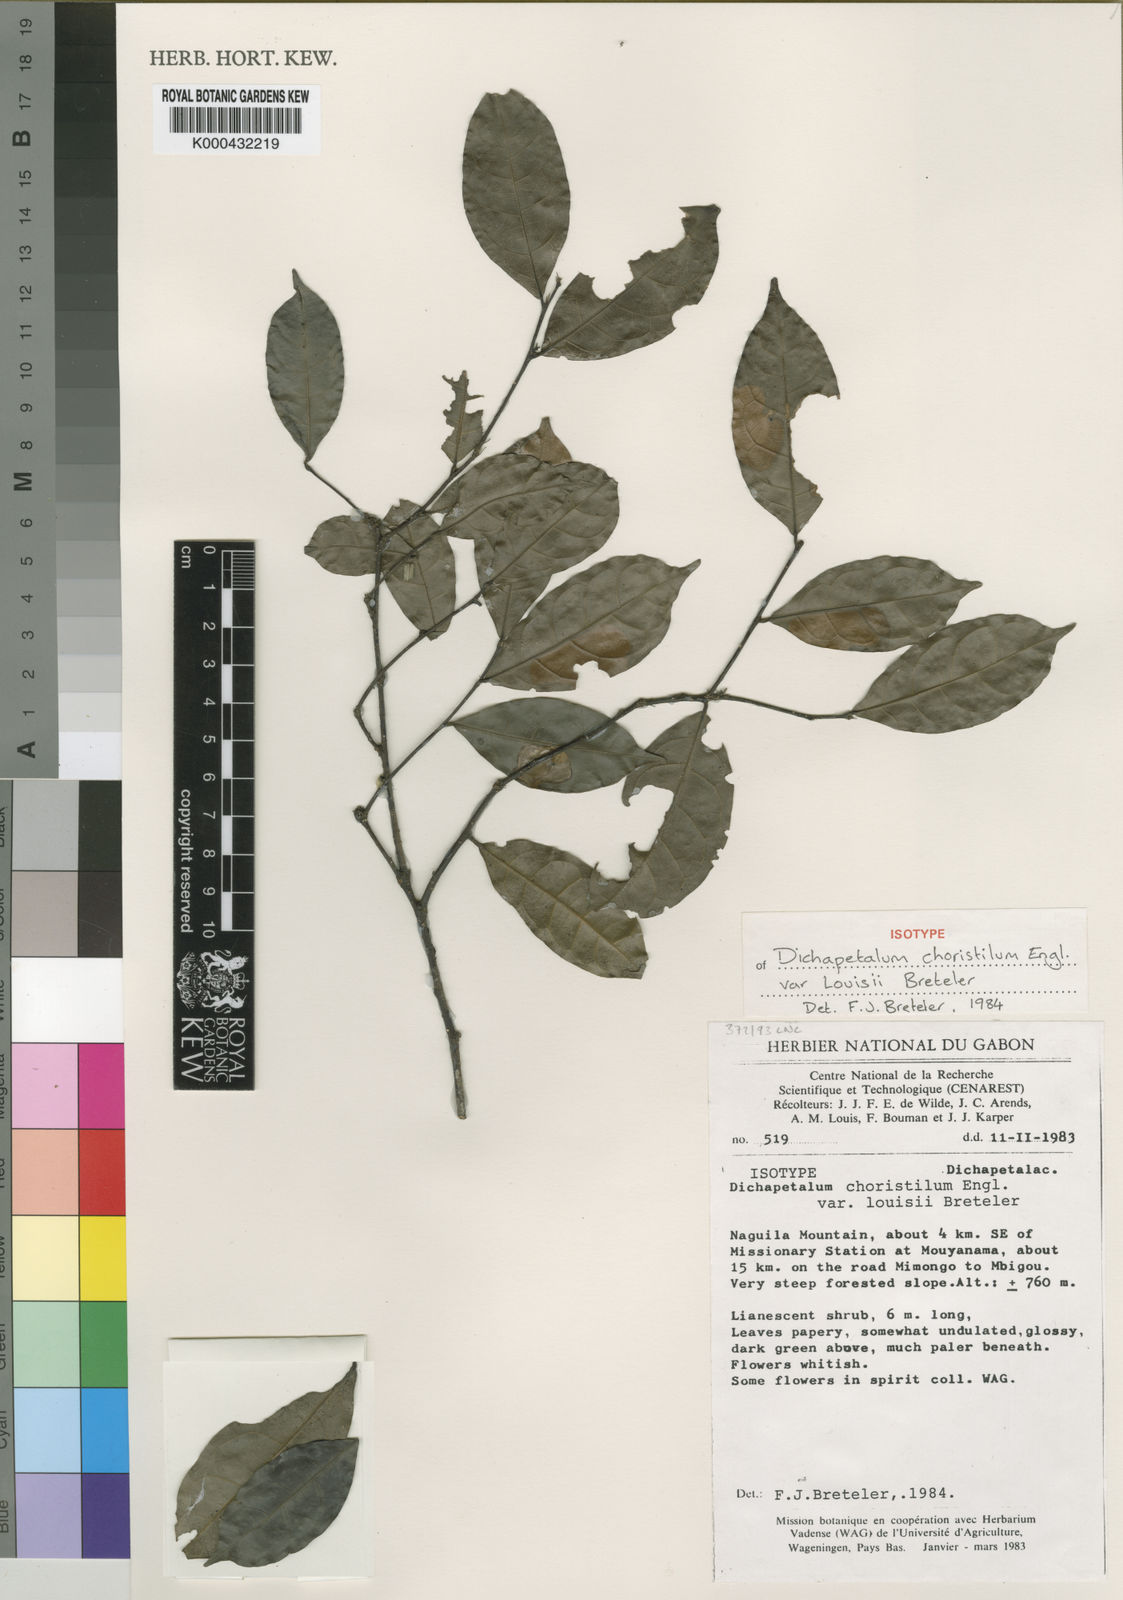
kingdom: Plantae
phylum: Tracheophyta
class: Magnoliopsida
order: Malpighiales
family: Dichapetalaceae
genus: Dichapetalum
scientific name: Dichapetalum choristilum
